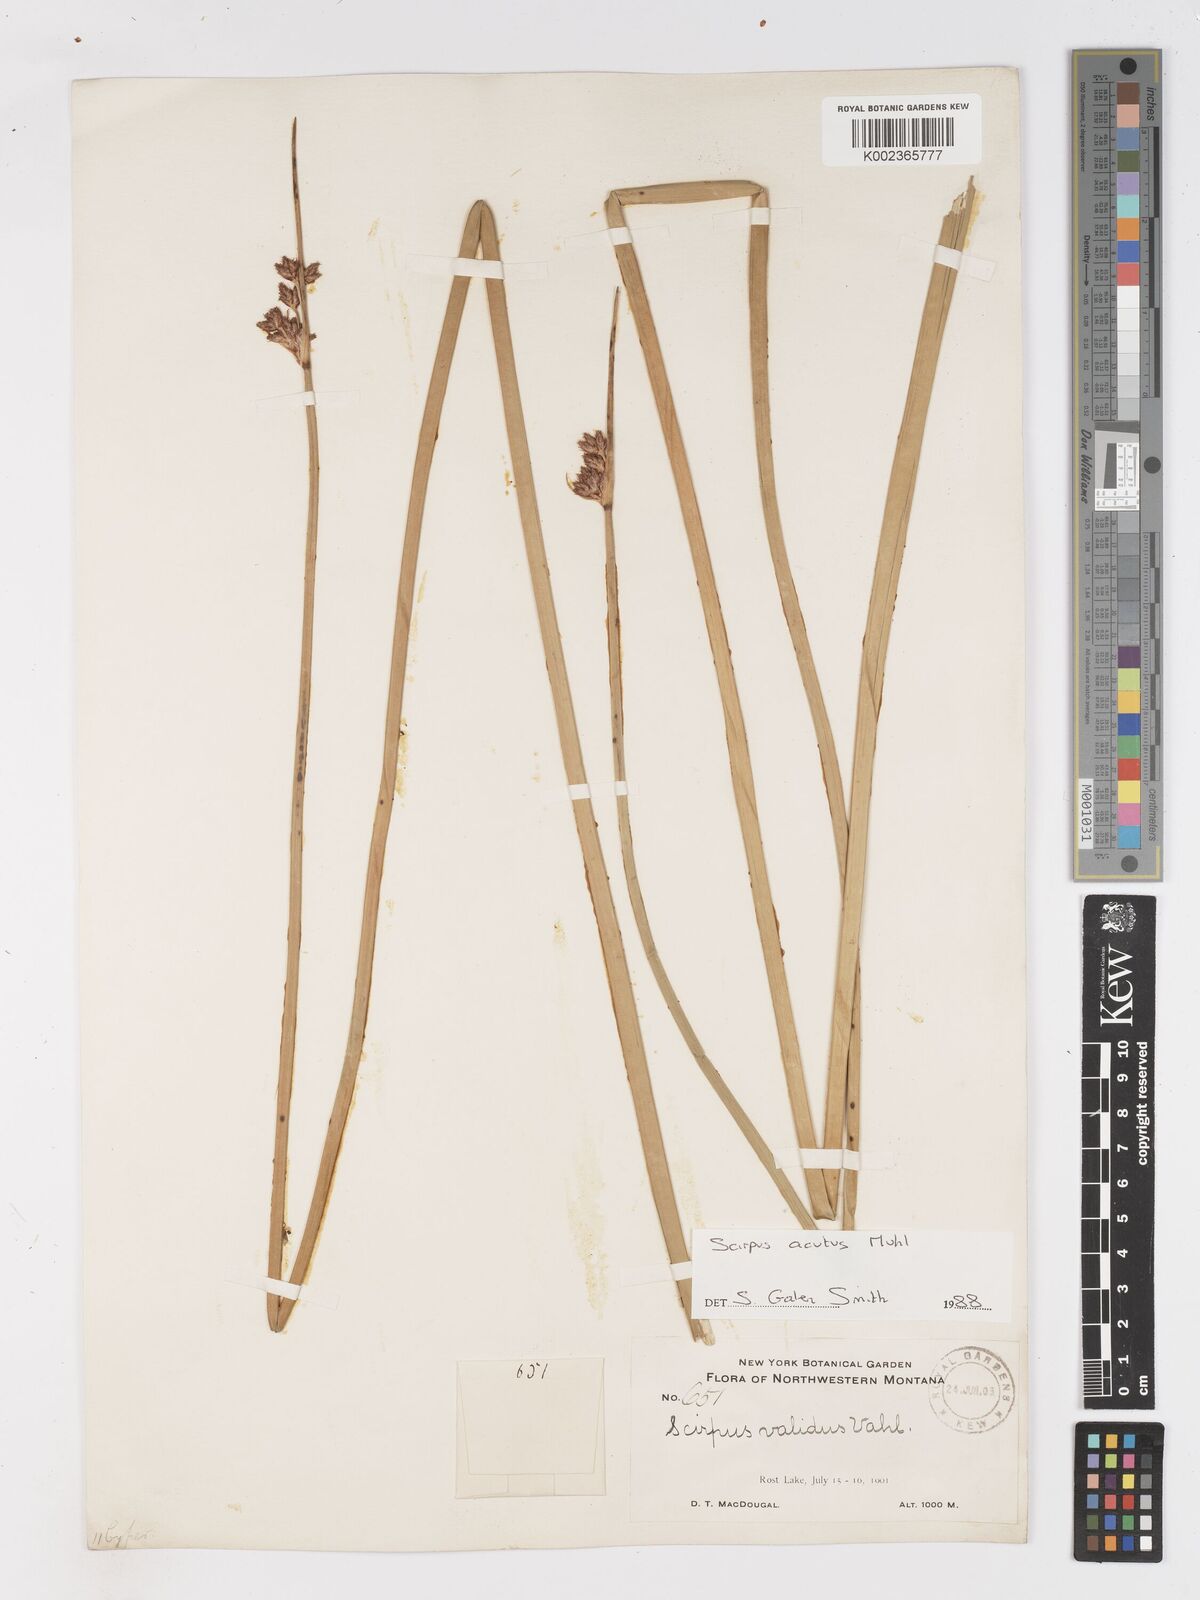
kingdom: Plantae
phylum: Tracheophyta
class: Liliopsida
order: Poales
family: Cyperaceae
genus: Schoenoplectus
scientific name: Schoenoplectus tabernaemontani
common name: Grey club-rush
